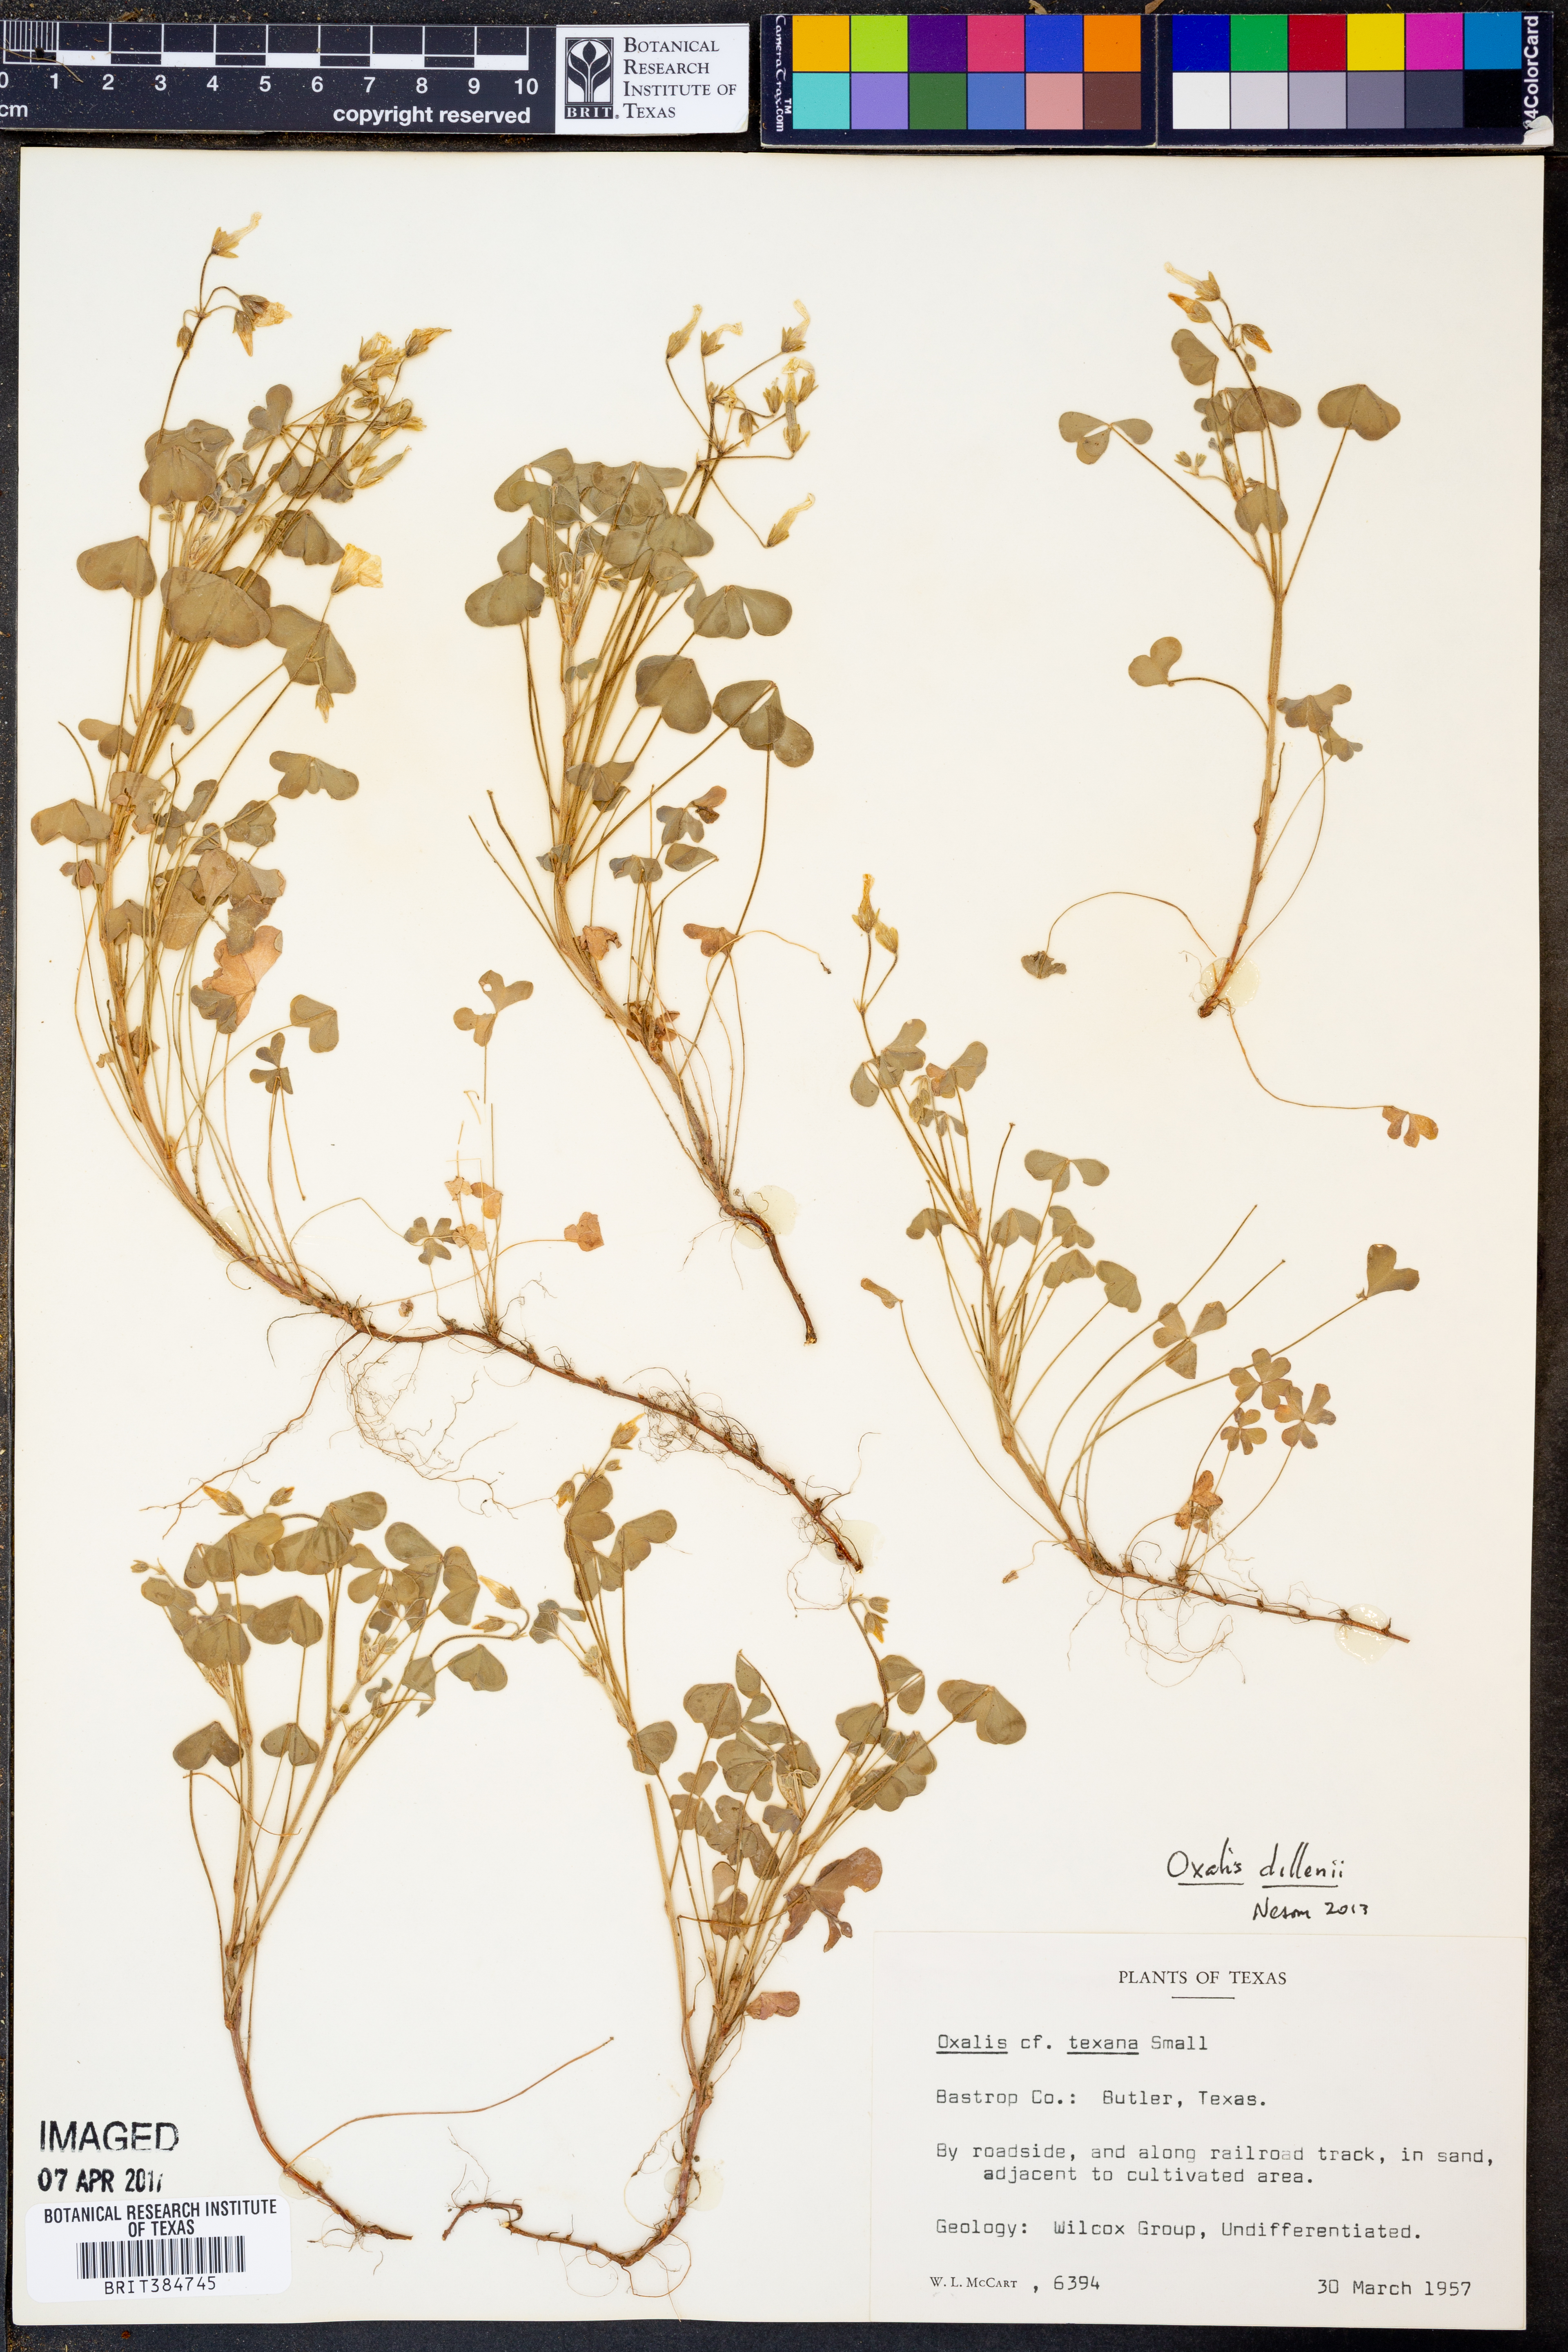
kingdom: Plantae
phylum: Tracheophyta
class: Magnoliopsida
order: Oxalidales
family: Oxalidaceae
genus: Oxalis
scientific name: Oxalis dillenii
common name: Sussex yellow-sorrel
